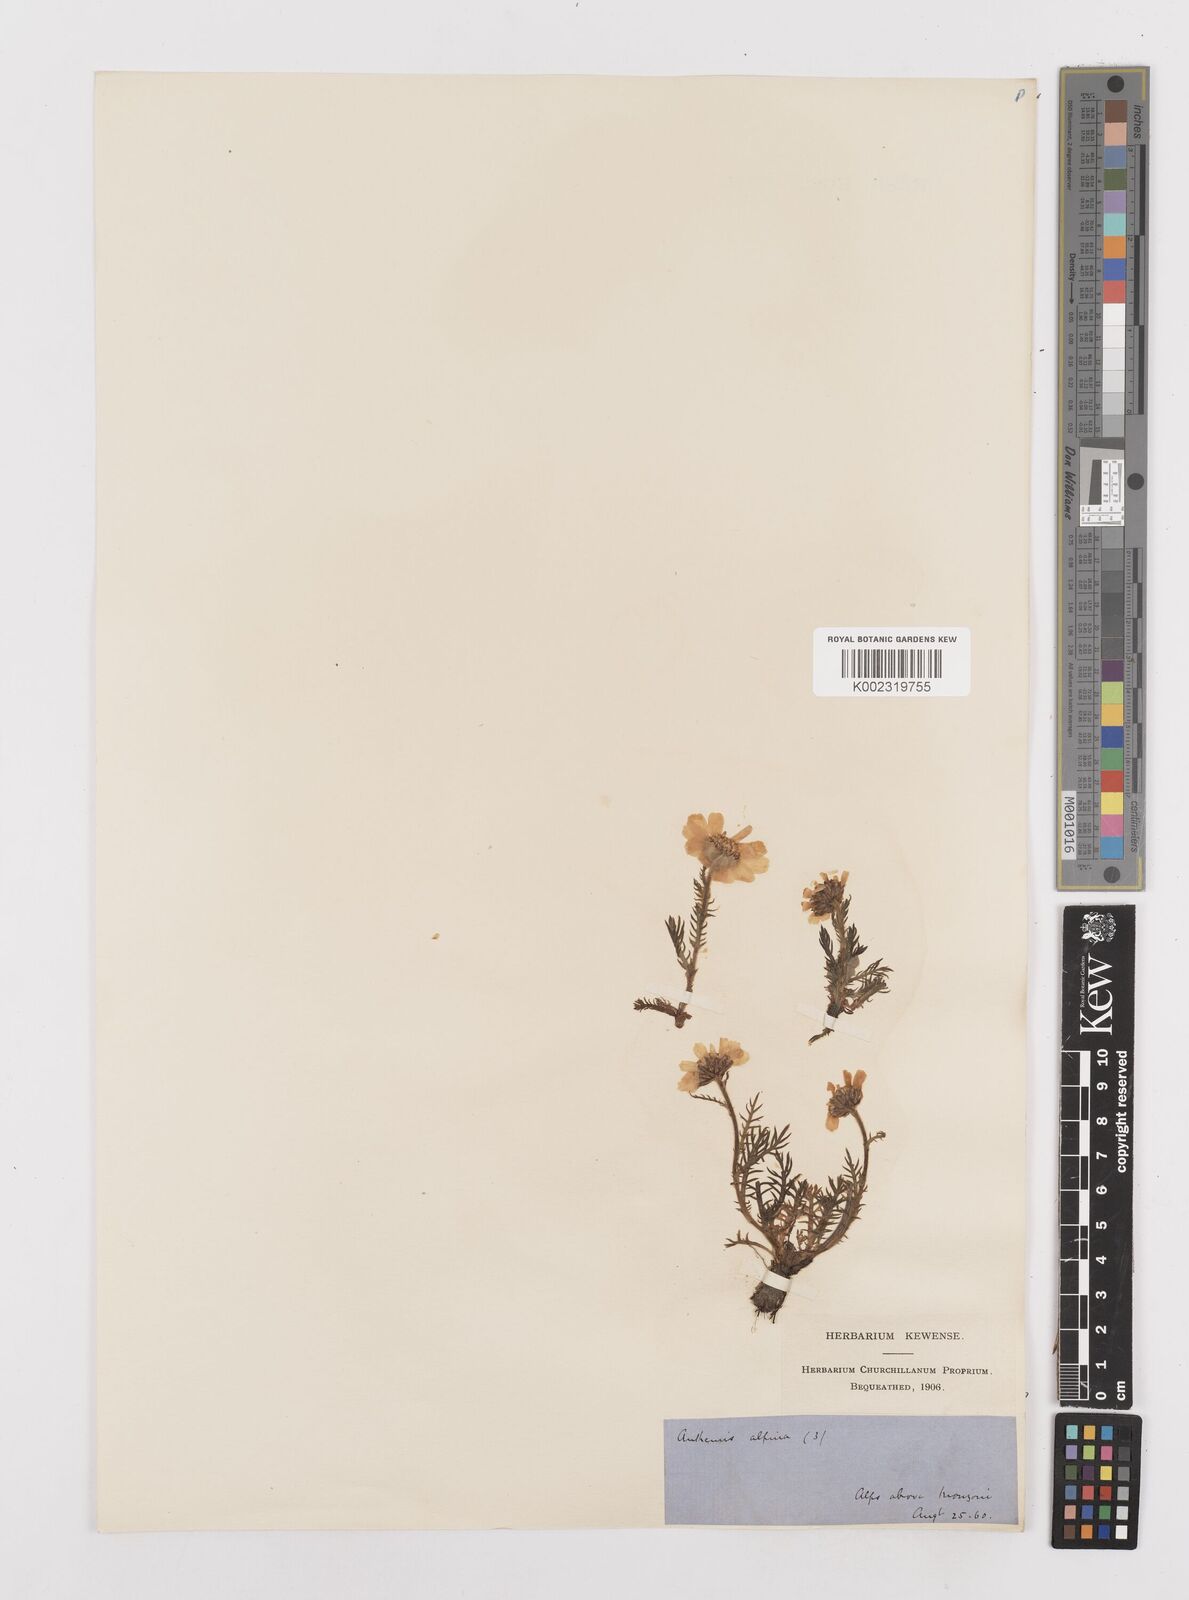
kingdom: Plantae
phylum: Tracheophyta
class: Magnoliopsida
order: Asterales
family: Asteraceae
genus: Achillea
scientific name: Achillea oxyloba
